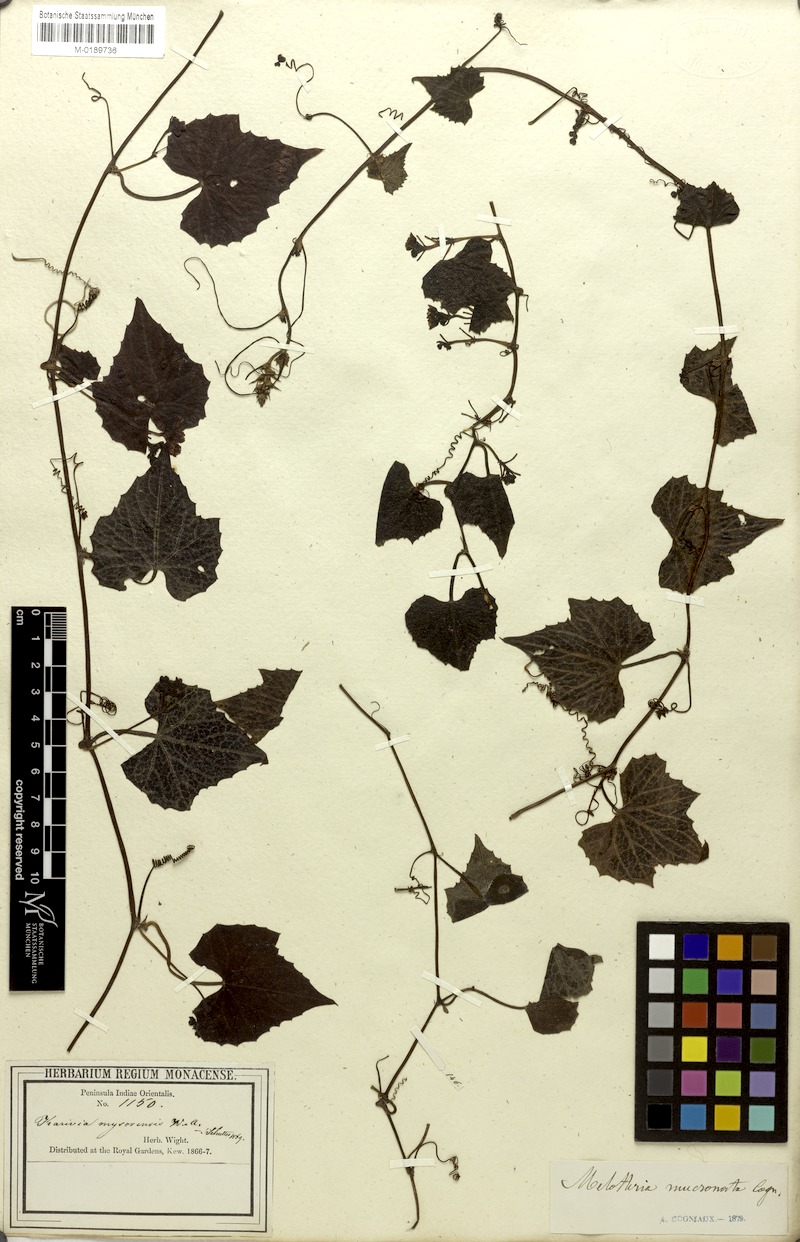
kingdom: Plantae
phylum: Tracheophyta
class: Magnoliopsida
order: Cucurbitales
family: Cucurbitaceae
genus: Zehneria
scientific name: Zehneria mucronata
